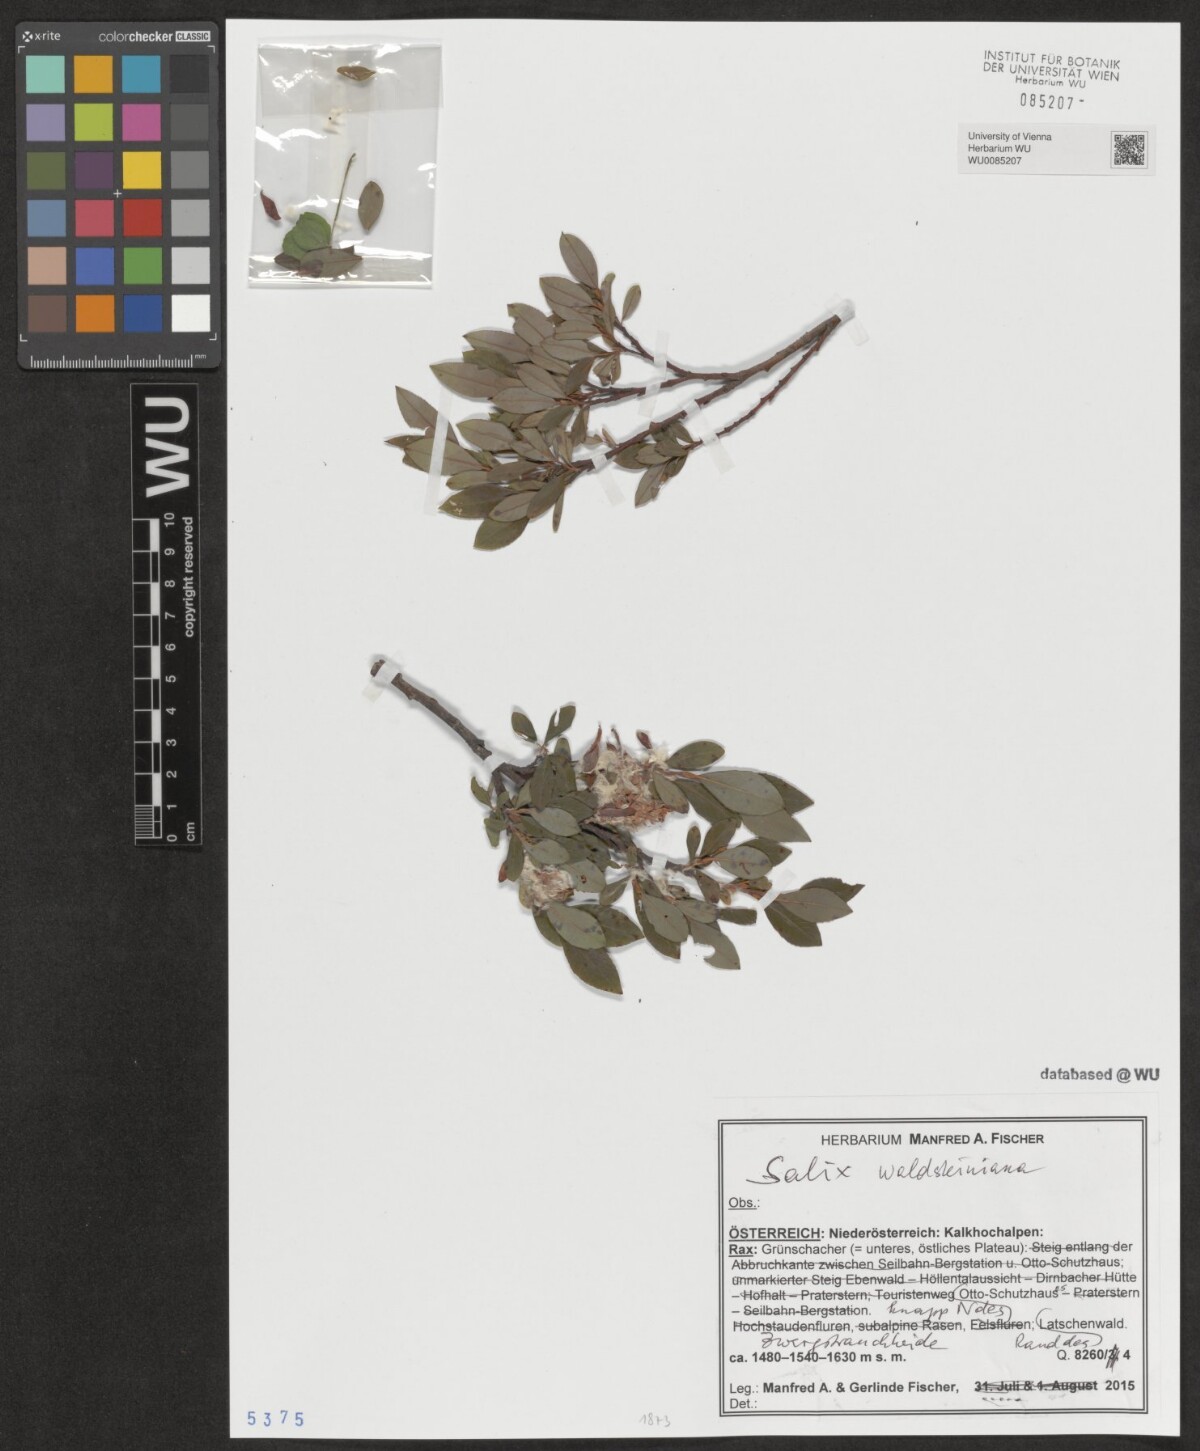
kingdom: Plantae
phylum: Tracheophyta
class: Magnoliopsida
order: Malpighiales
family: Salicaceae
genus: Salix
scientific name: Salix waldsteiniana
